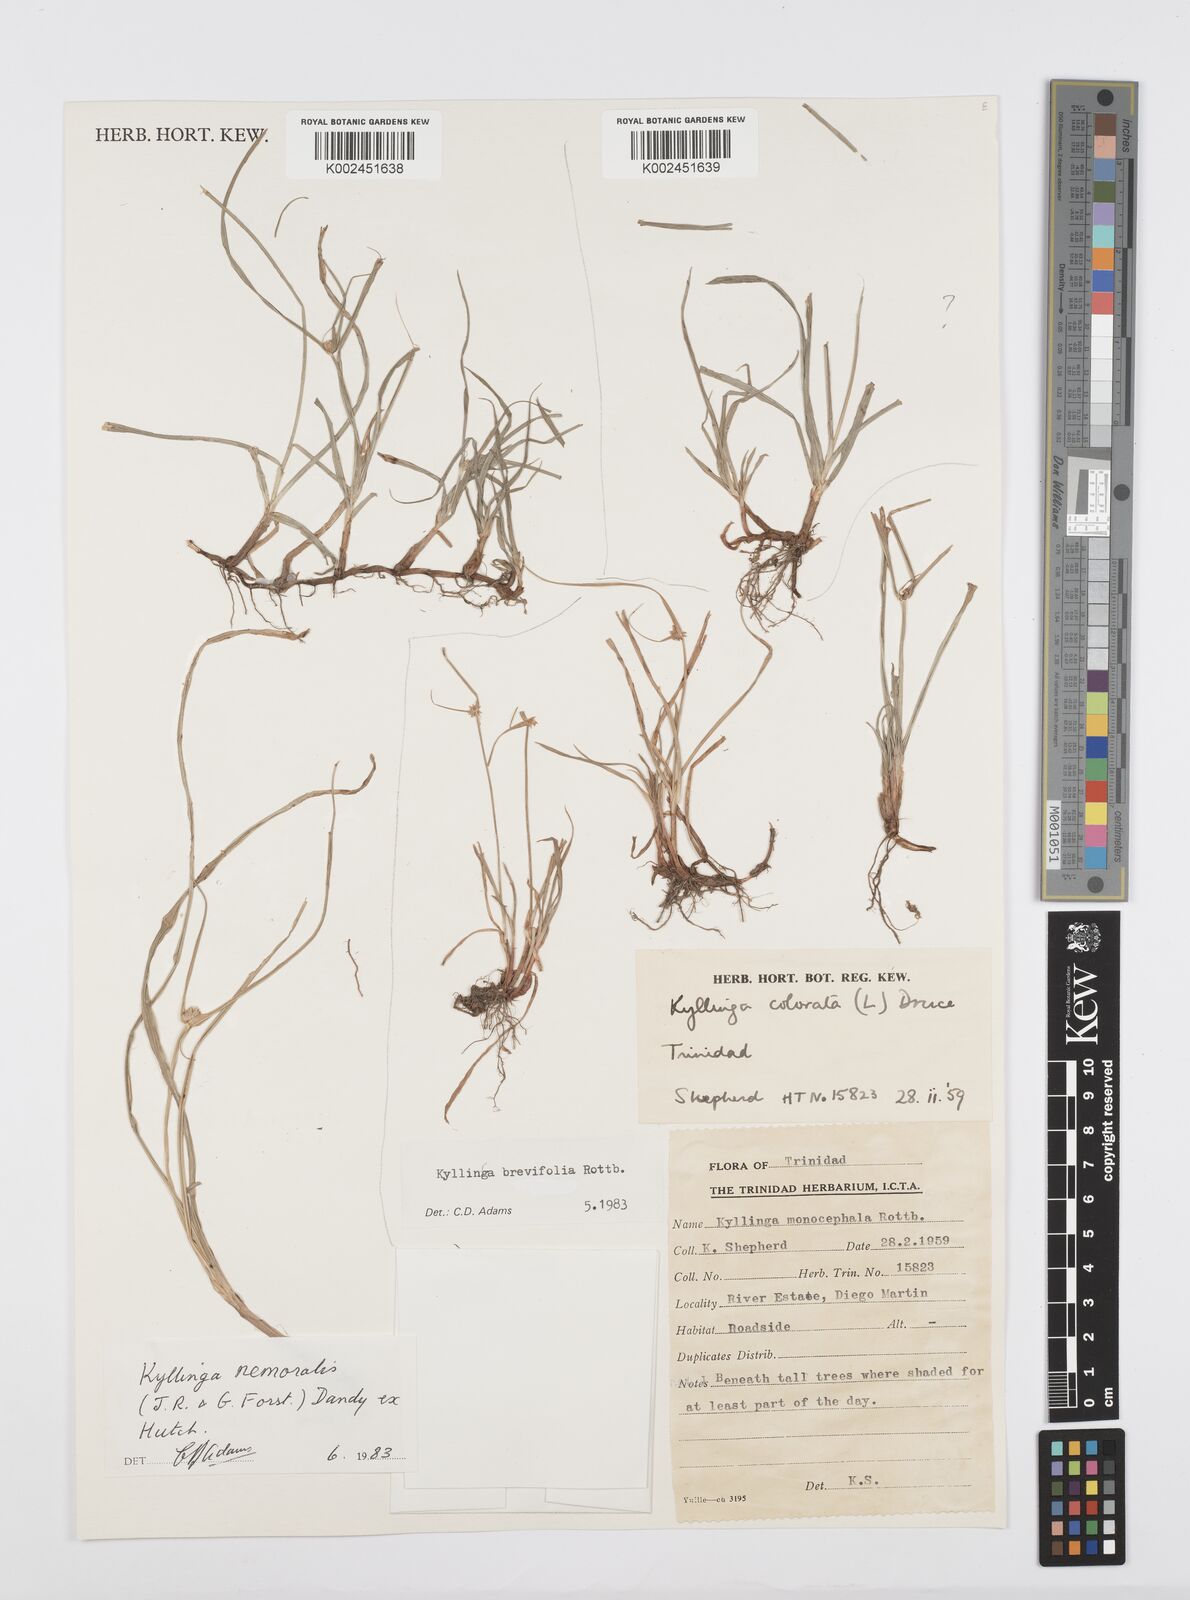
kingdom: Plantae
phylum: Tracheophyta
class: Liliopsida
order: Poales
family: Cyperaceae
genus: Cyperus
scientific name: Cyperus brevifolius
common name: Globe kyllinga
